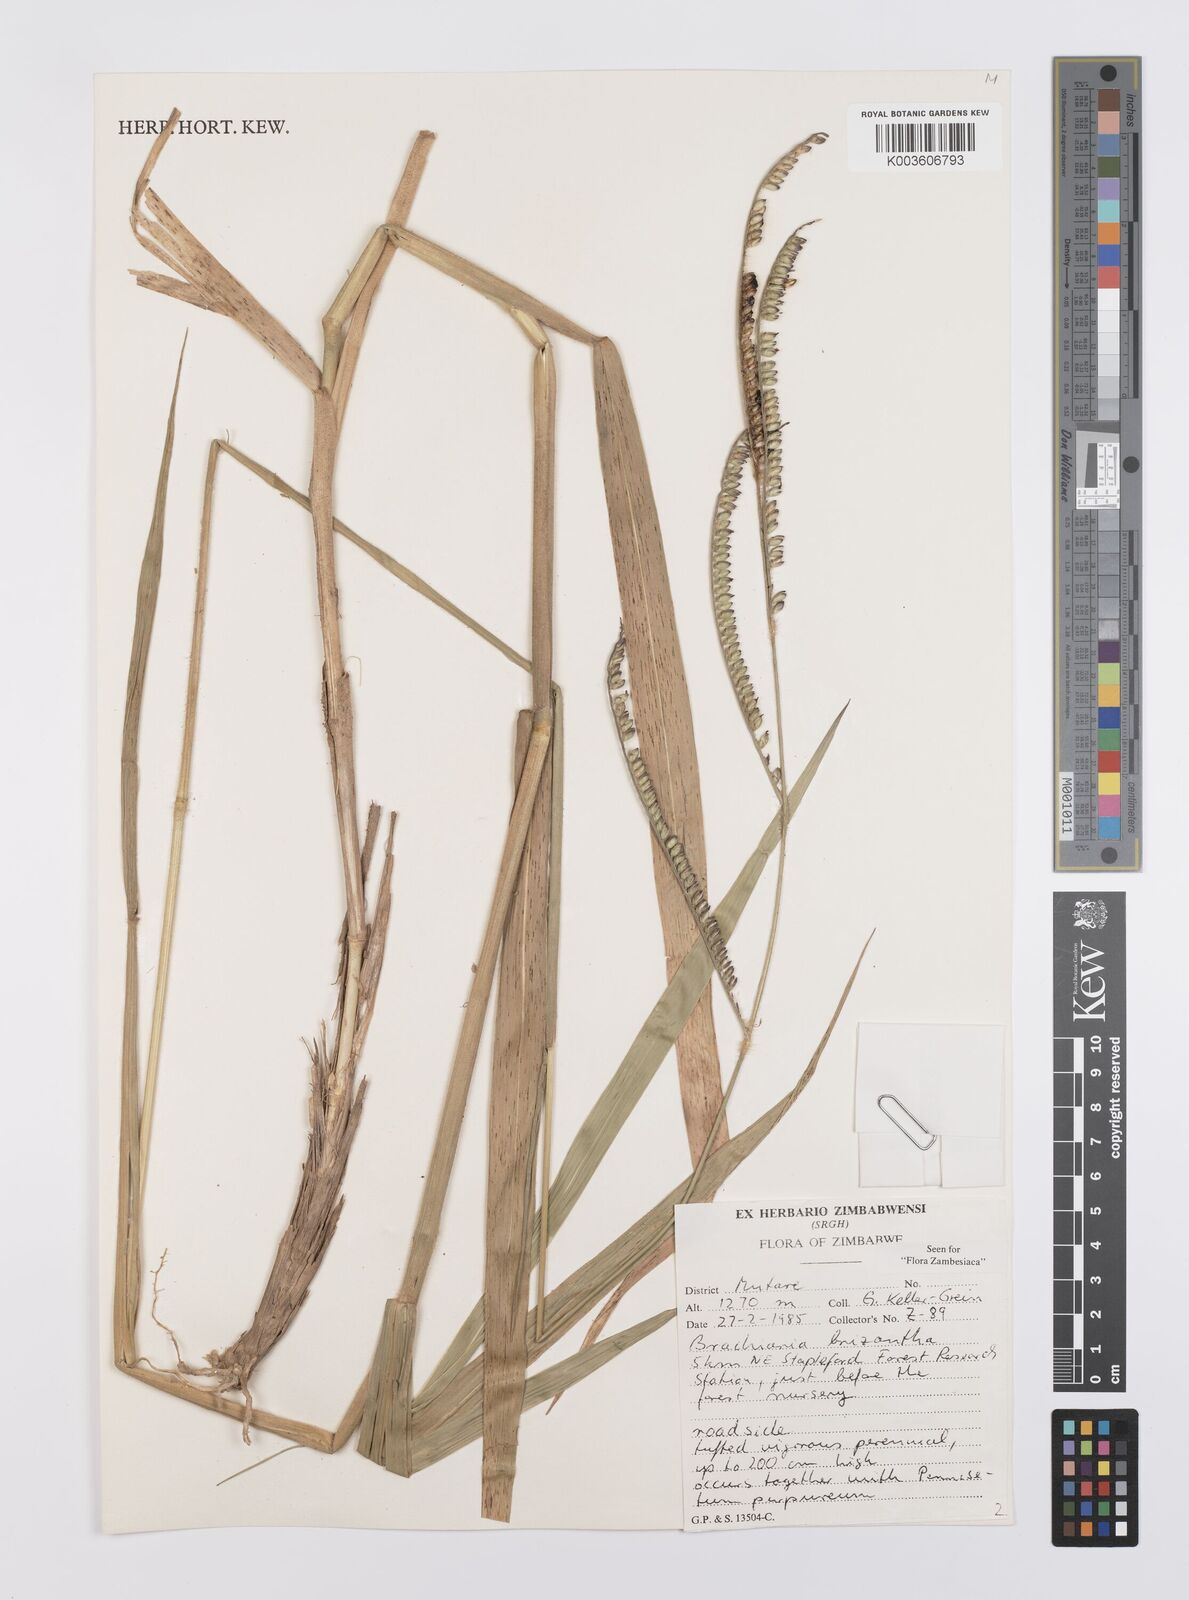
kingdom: Plantae
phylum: Tracheophyta
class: Liliopsida
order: Poales
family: Poaceae
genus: Urochloa
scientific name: Urochloa brizantha
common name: Palisade signalgrass
